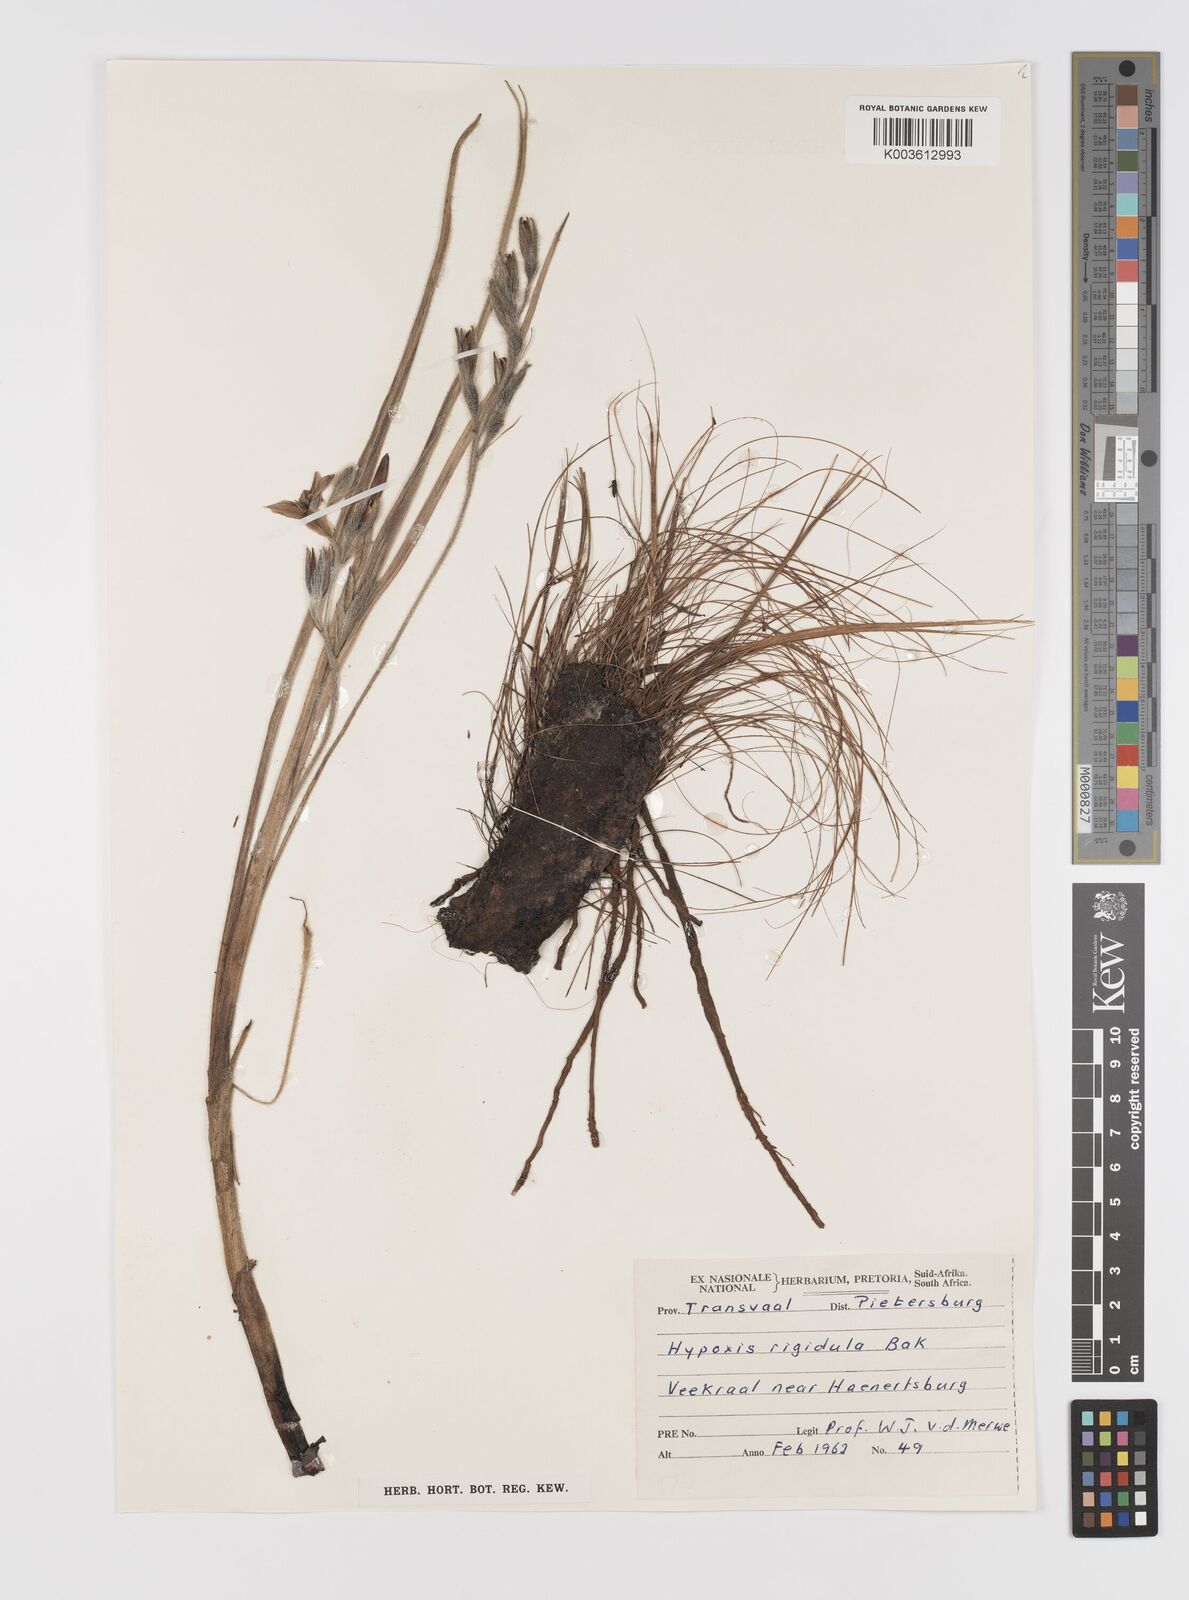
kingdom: Plantae
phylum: Tracheophyta
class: Liliopsida
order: Asparagales
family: Hypoxidaceae
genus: Hypoxis
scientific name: Hypoxis rigidula
